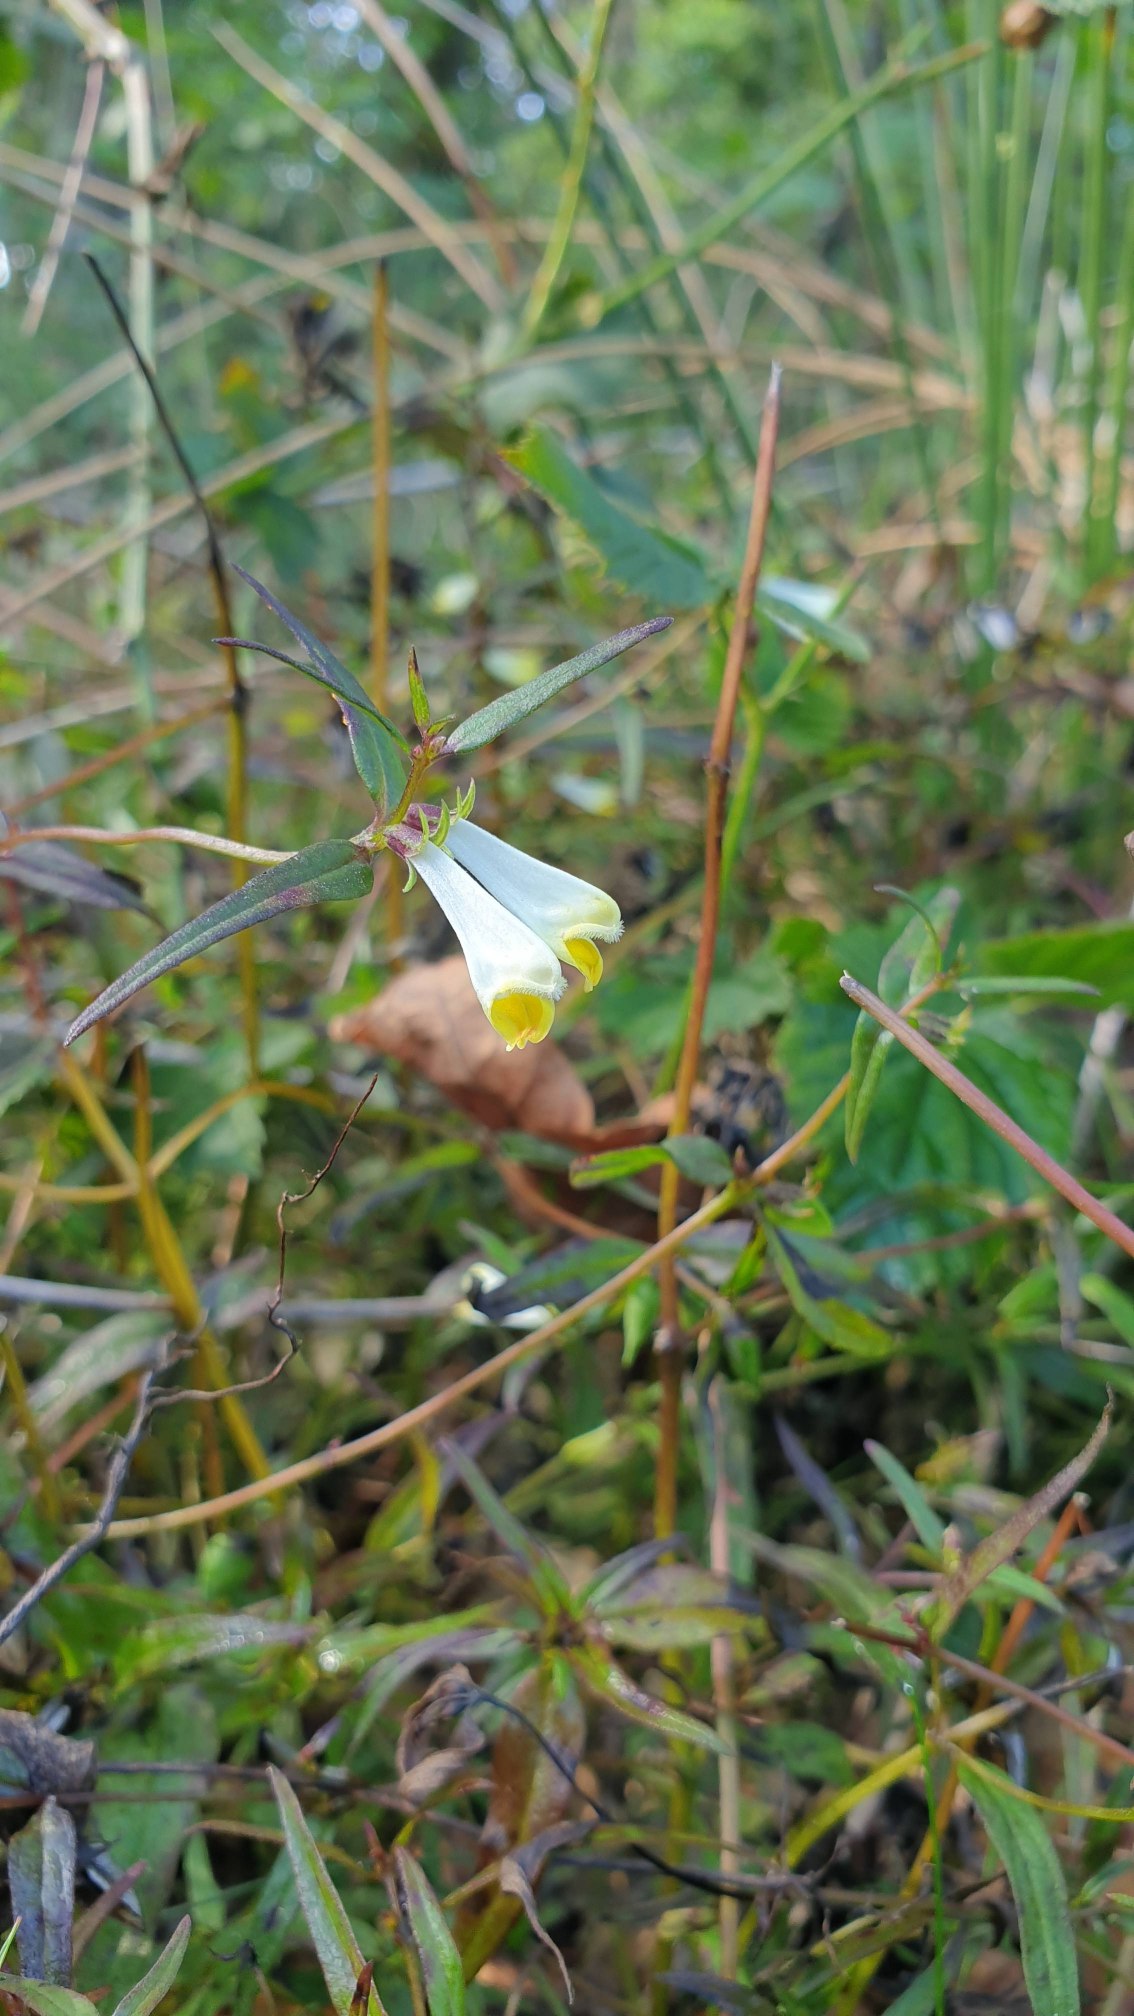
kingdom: Plantae
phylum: Tracheophyta
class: Magnoliopsida
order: Lamiales
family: Orobanchaceae
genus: Melampyrum
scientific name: Melampyrum pratense
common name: Almindelig kohvede
